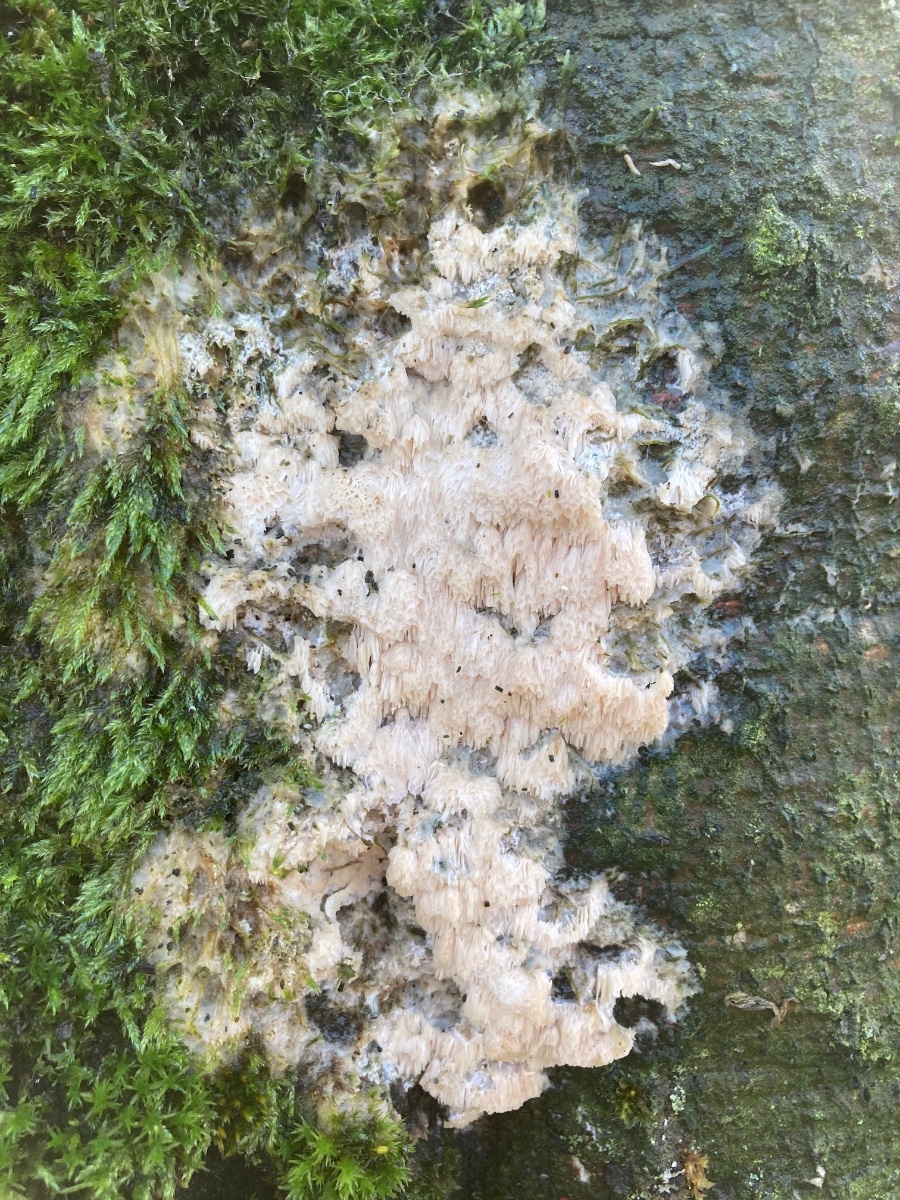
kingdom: Fungi
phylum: Basidiomycota
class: Agaricomycetes
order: Polyporales
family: Irpicaceae
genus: Irpex
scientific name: Irpex latemarginatus
